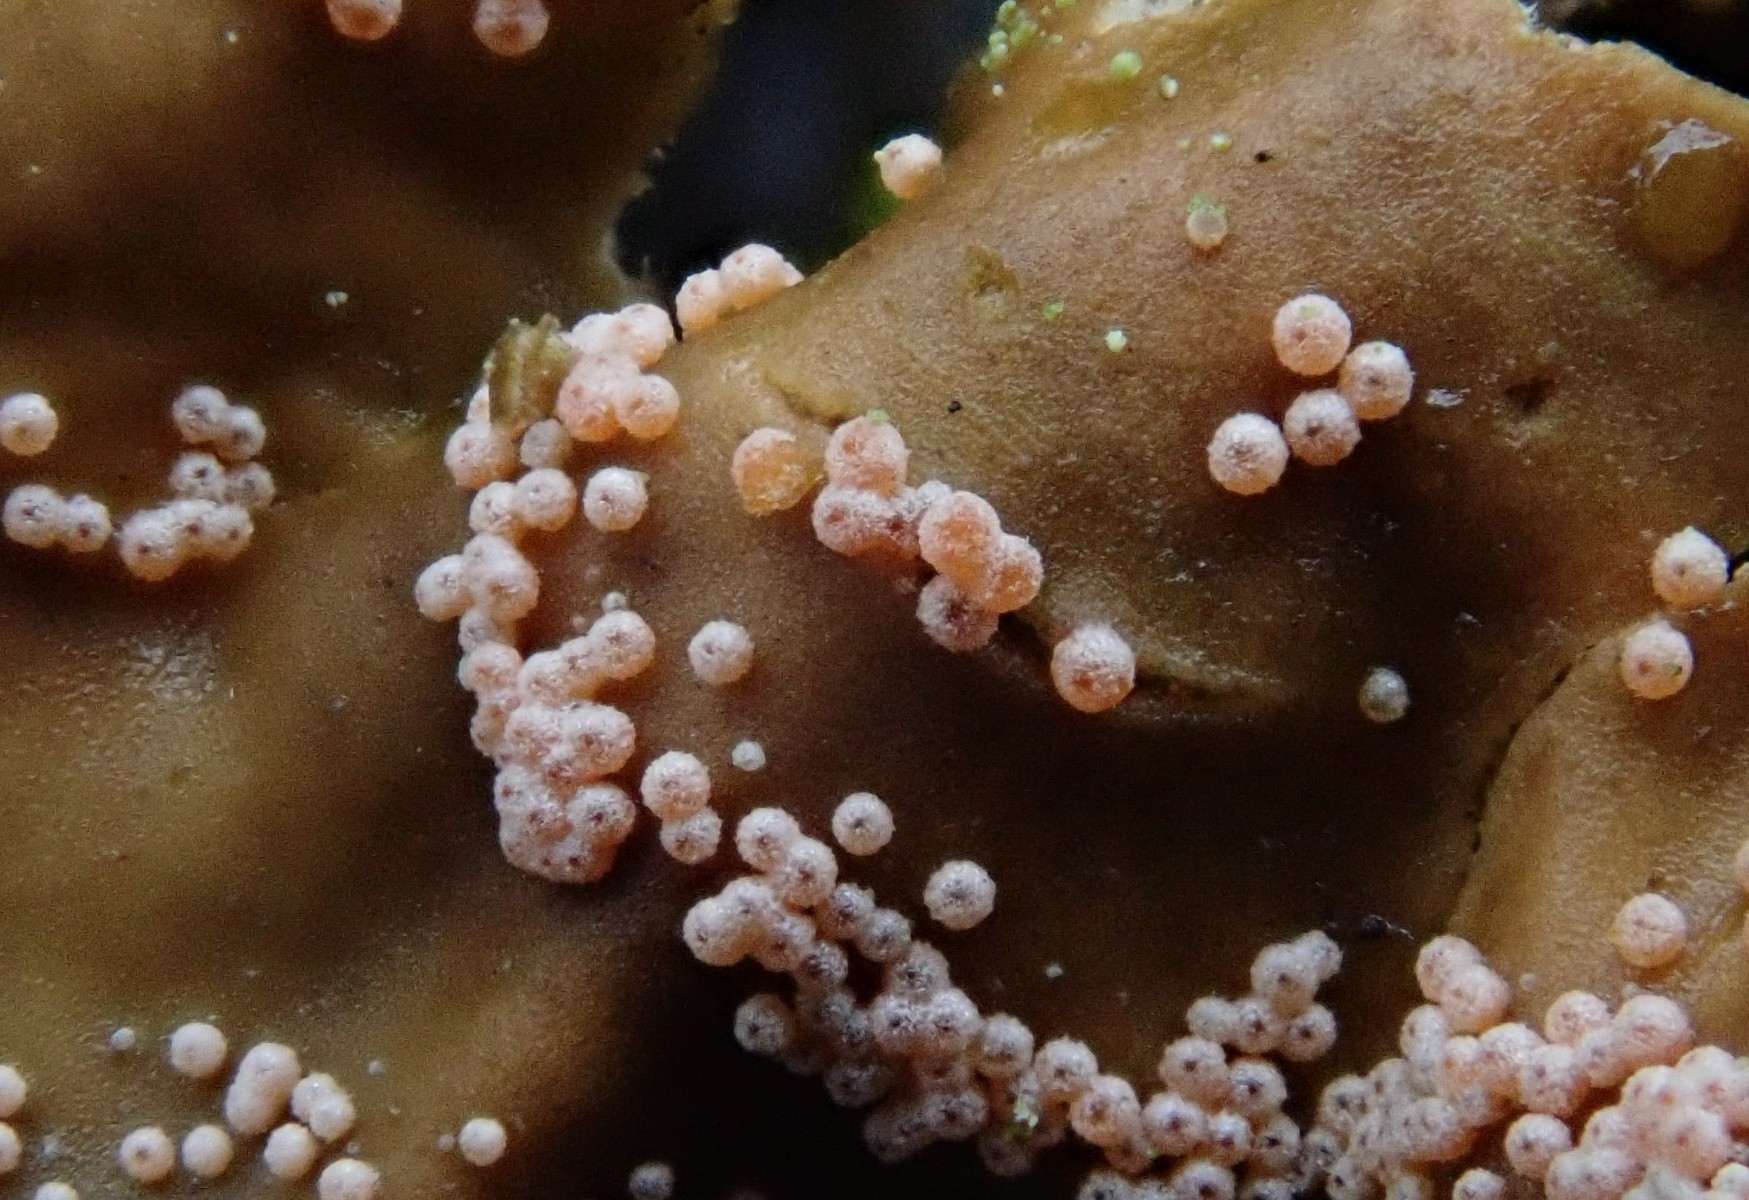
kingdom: Fungi
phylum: Ascomycota
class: Sordariomycetes
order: Hypocreales
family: Bionectriaceae
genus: Nectriopsis
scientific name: Nectriopsis lecanodes
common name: skjoldlav-gyldenkerne
